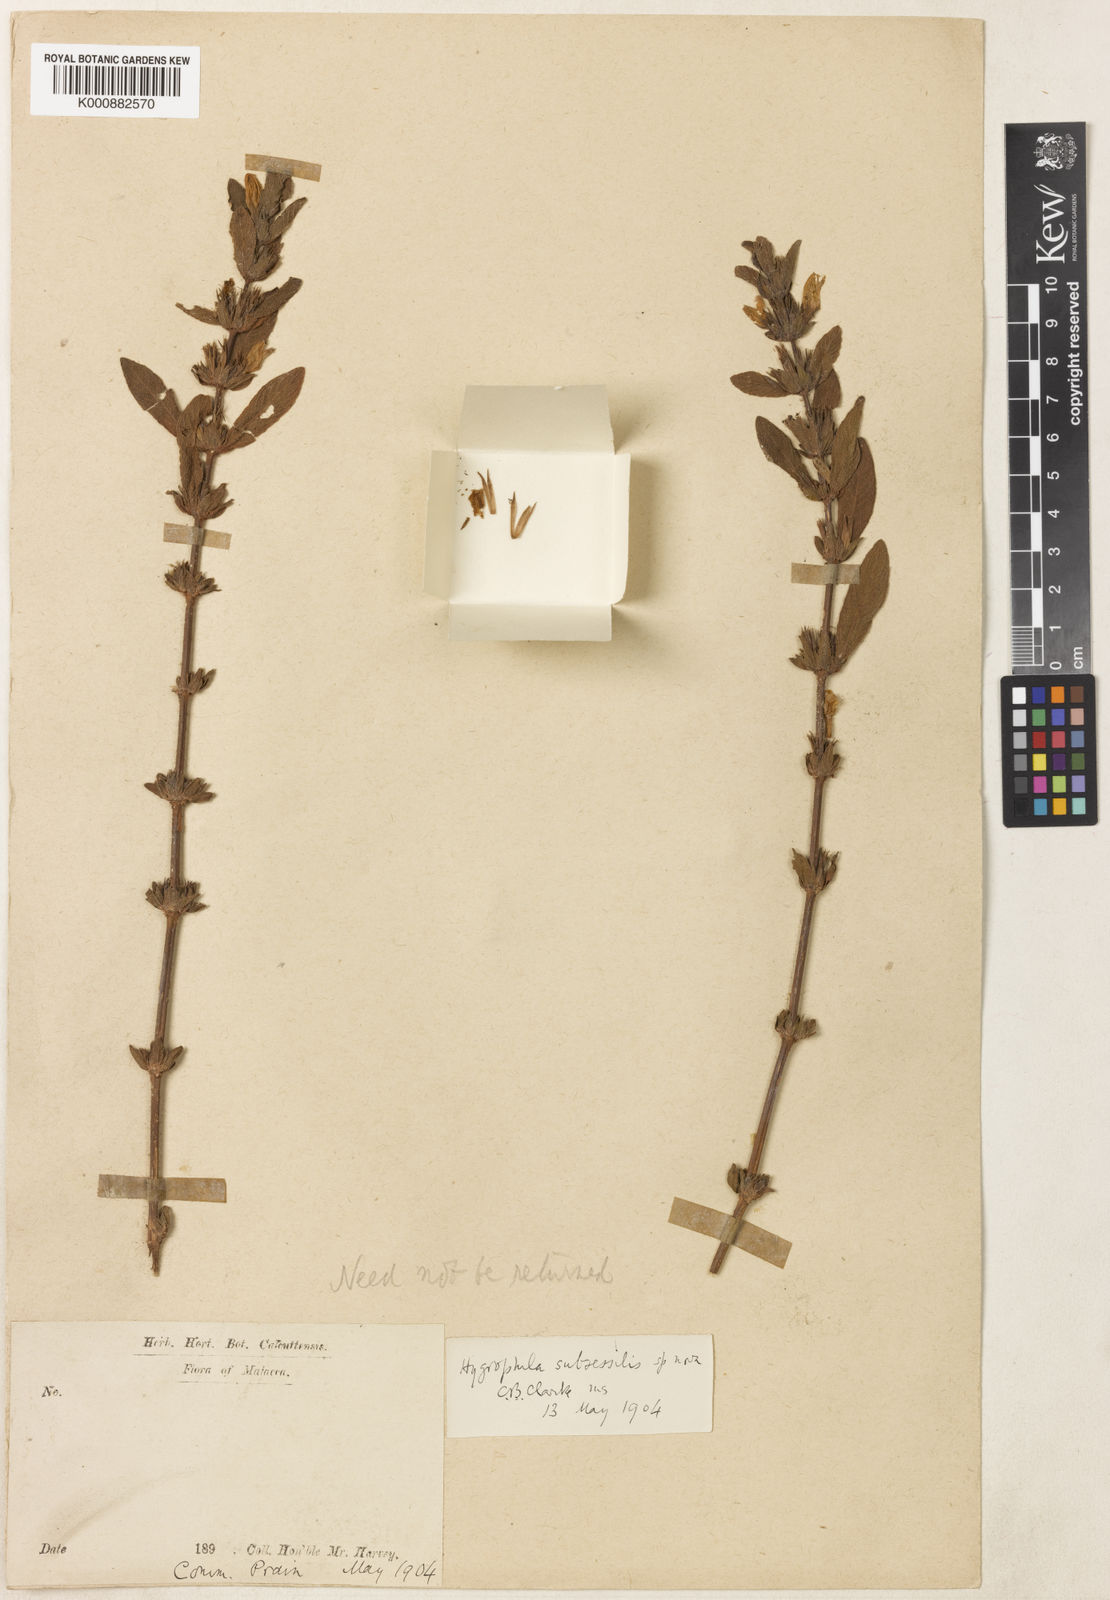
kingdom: Plantae
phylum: Tracheophyta
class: Magnoliopsida
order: Lamiales
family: Acanthaceae
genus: Hygrophila
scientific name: Hygrophila subsessilis
